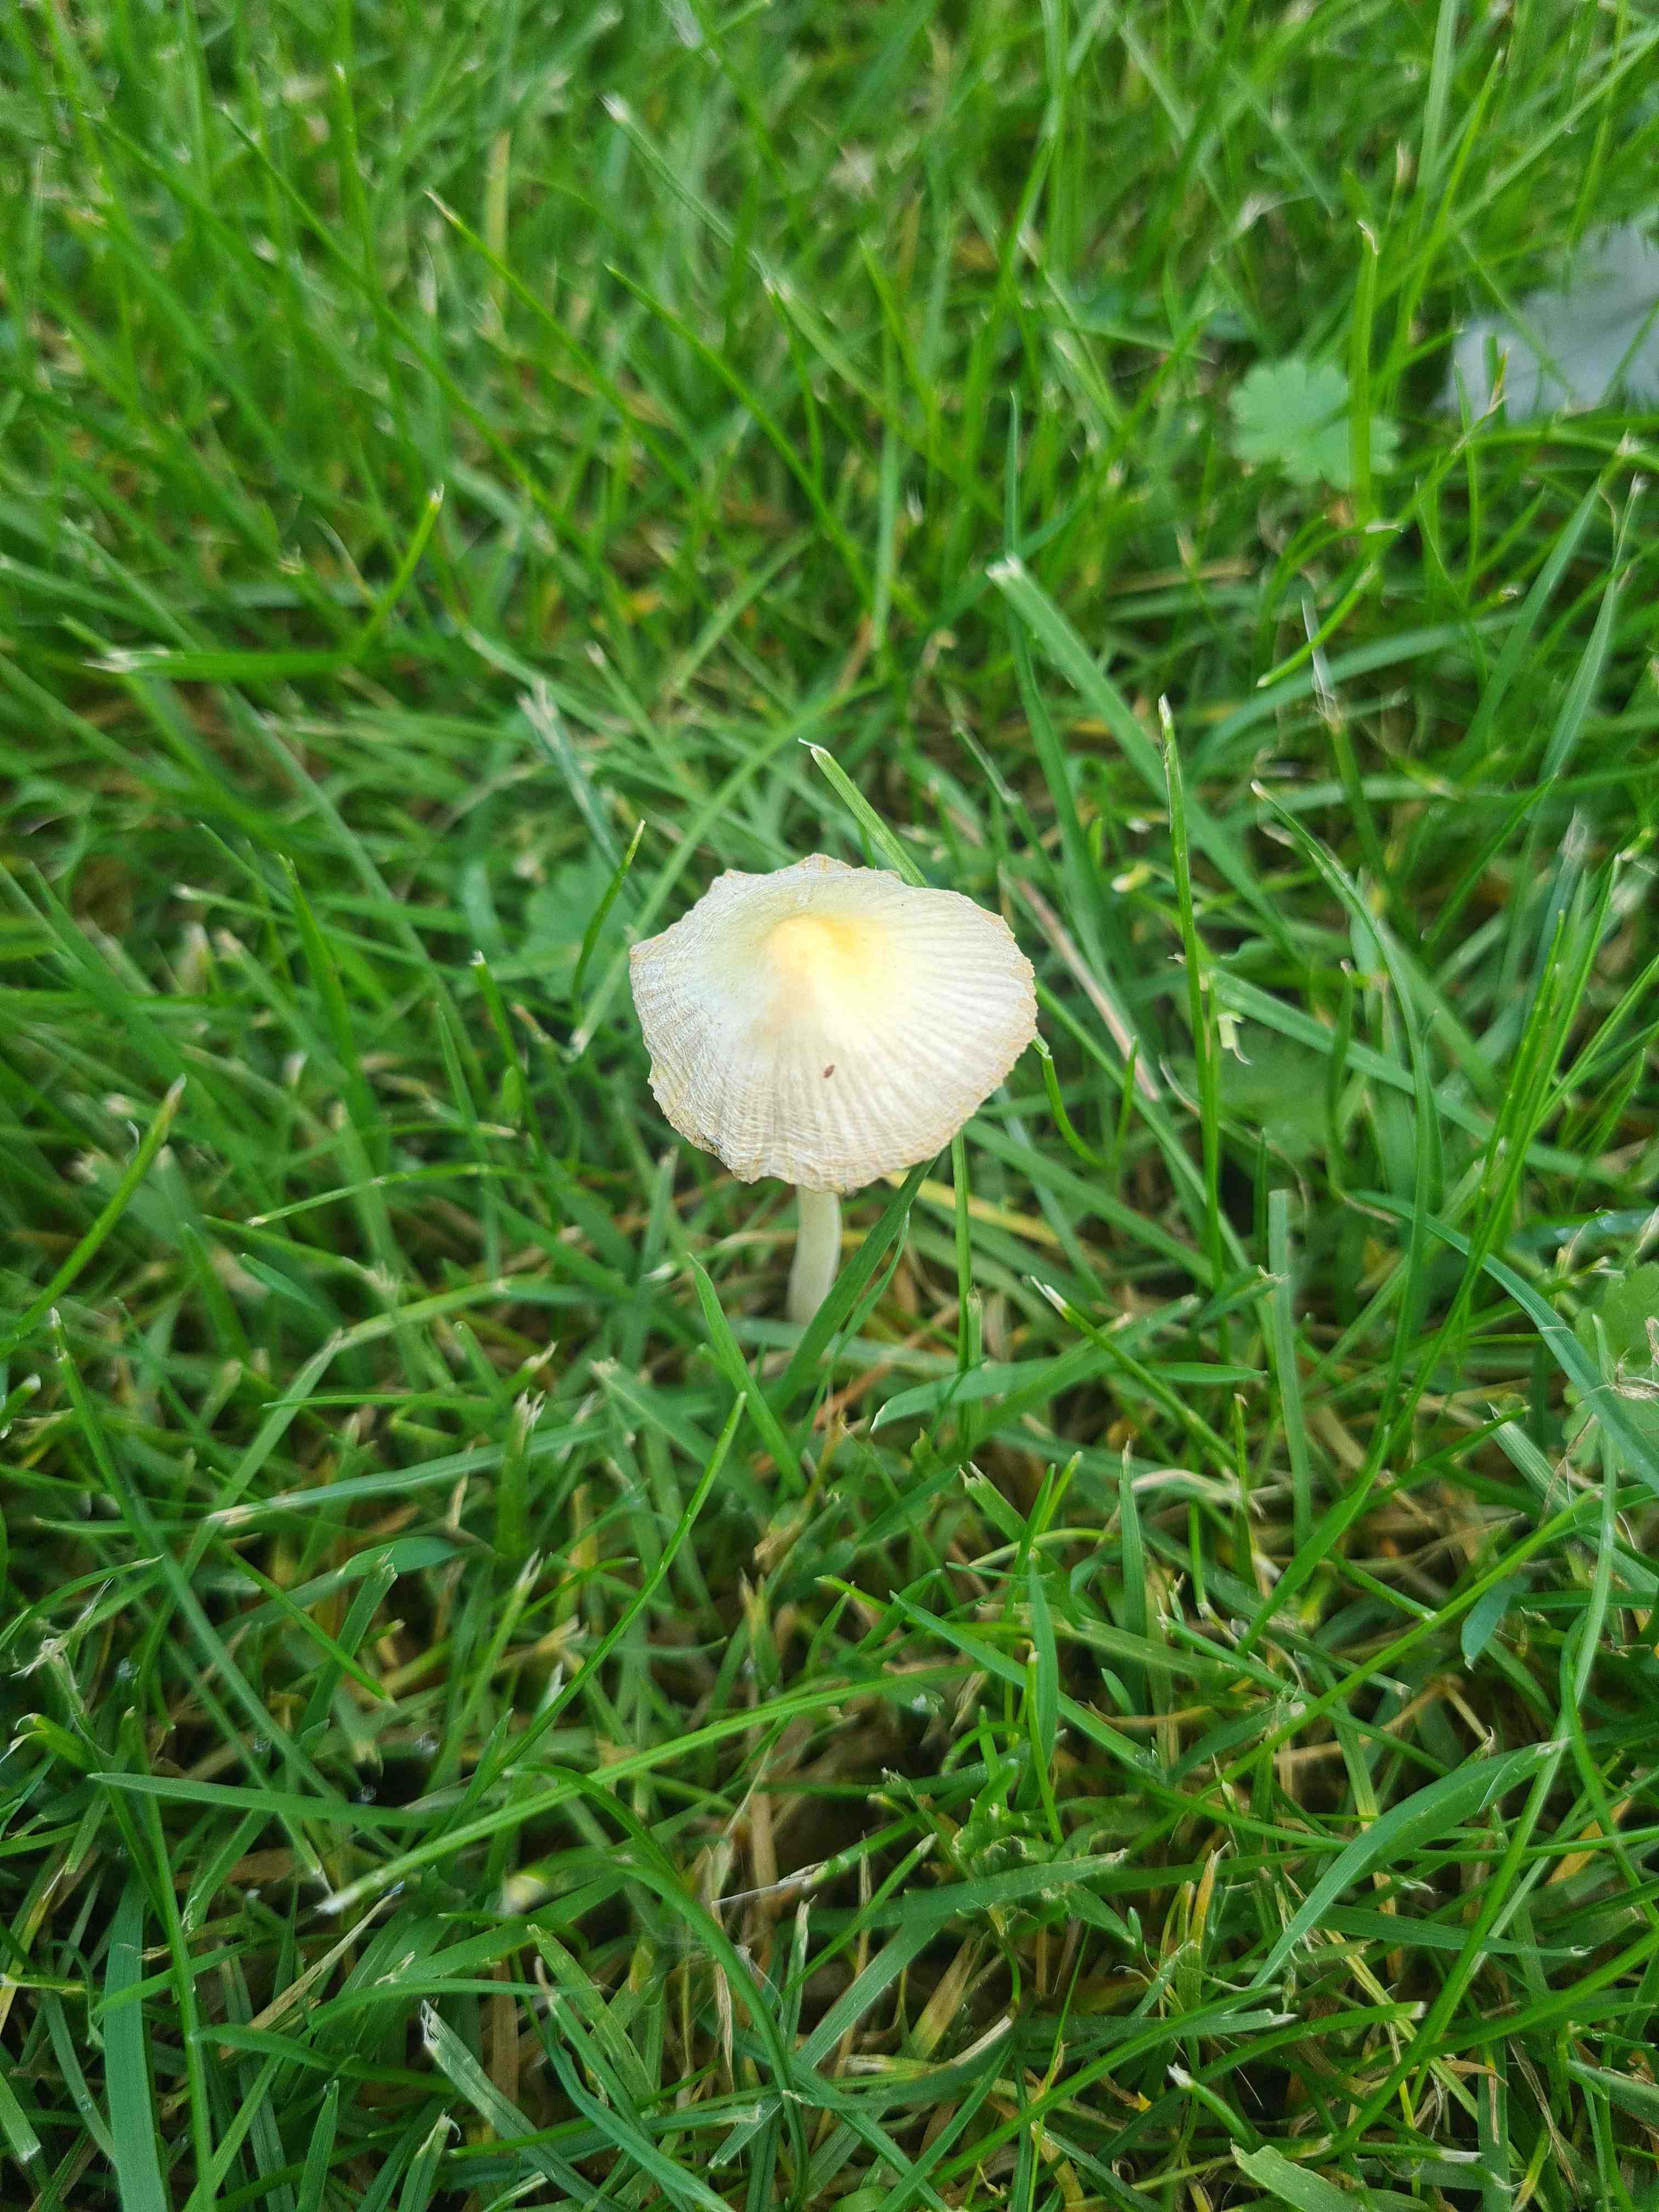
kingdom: Fungi
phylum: Basidiomycota
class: Agaricomycetes
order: Agaricales
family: Bolbitiaceae
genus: Bolbitius
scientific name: Bolbitius titubans
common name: almindelig gulhat
